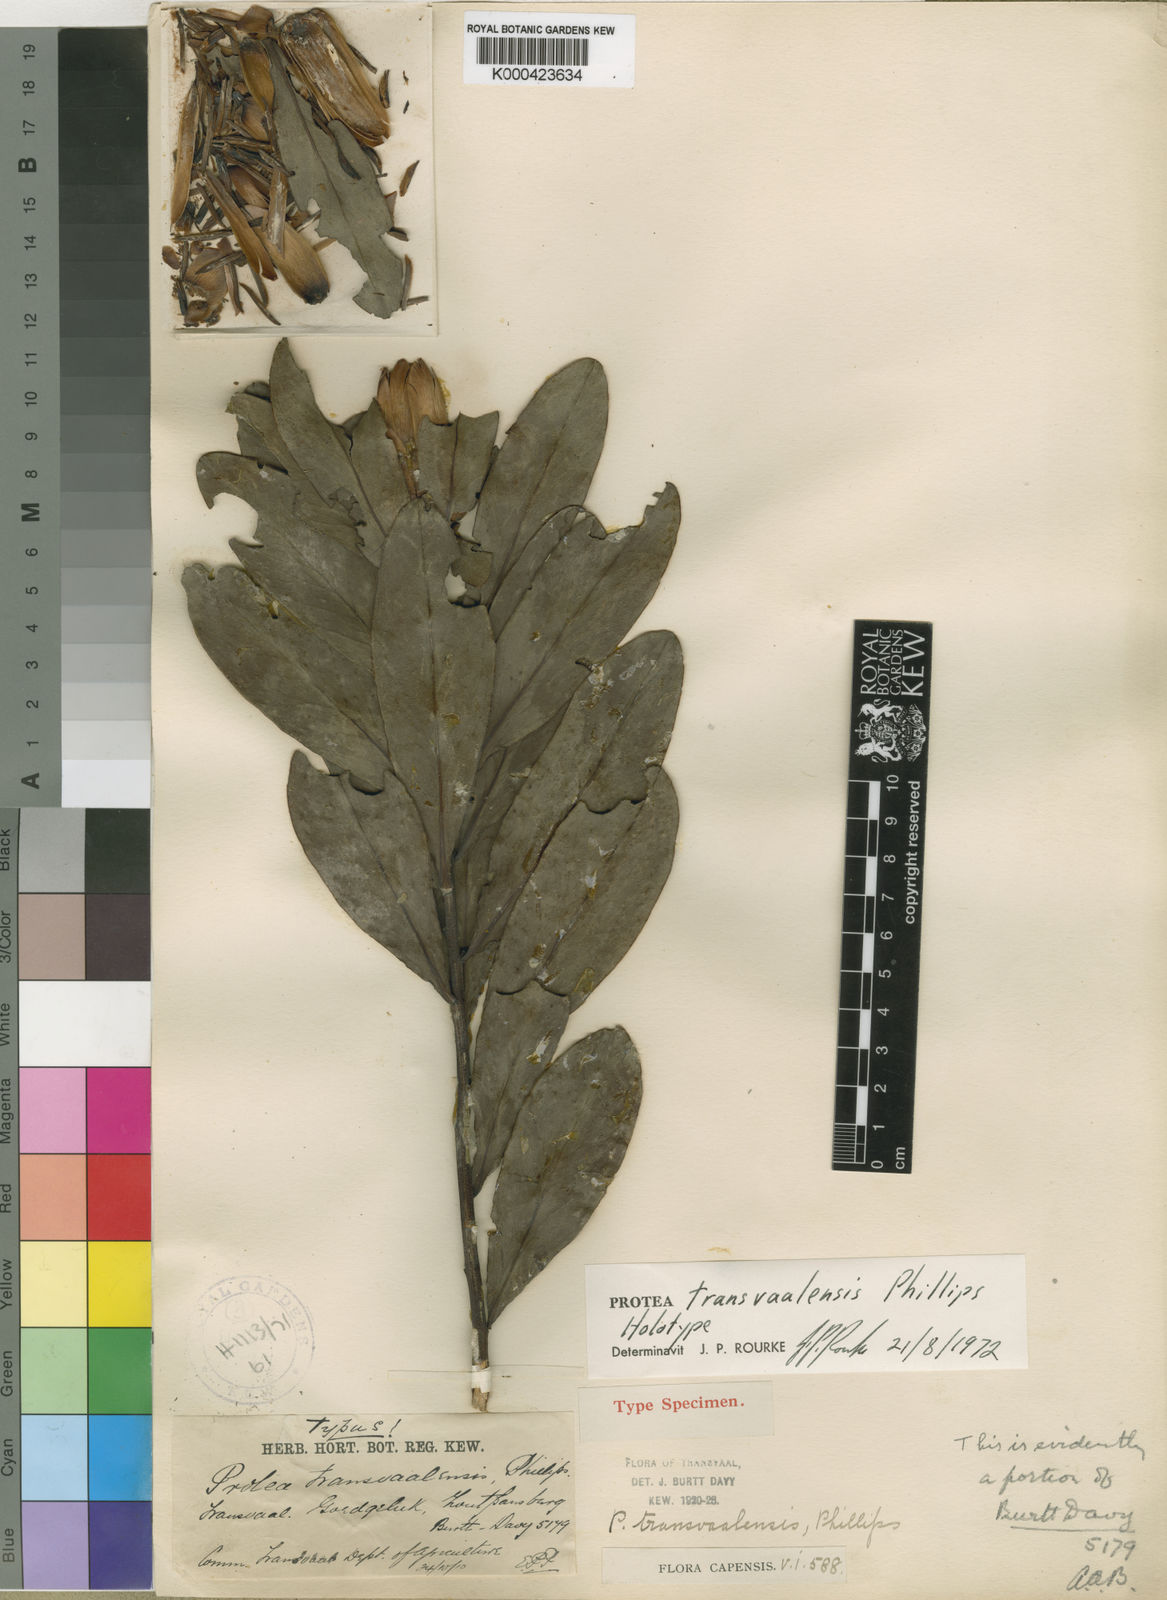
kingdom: Plantae
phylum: Tracheophyta
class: Magnoliopsida
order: Proteales
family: Proteaceae
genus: Protea
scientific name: Protea simplex
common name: Dwarf grassveld sugarbush
